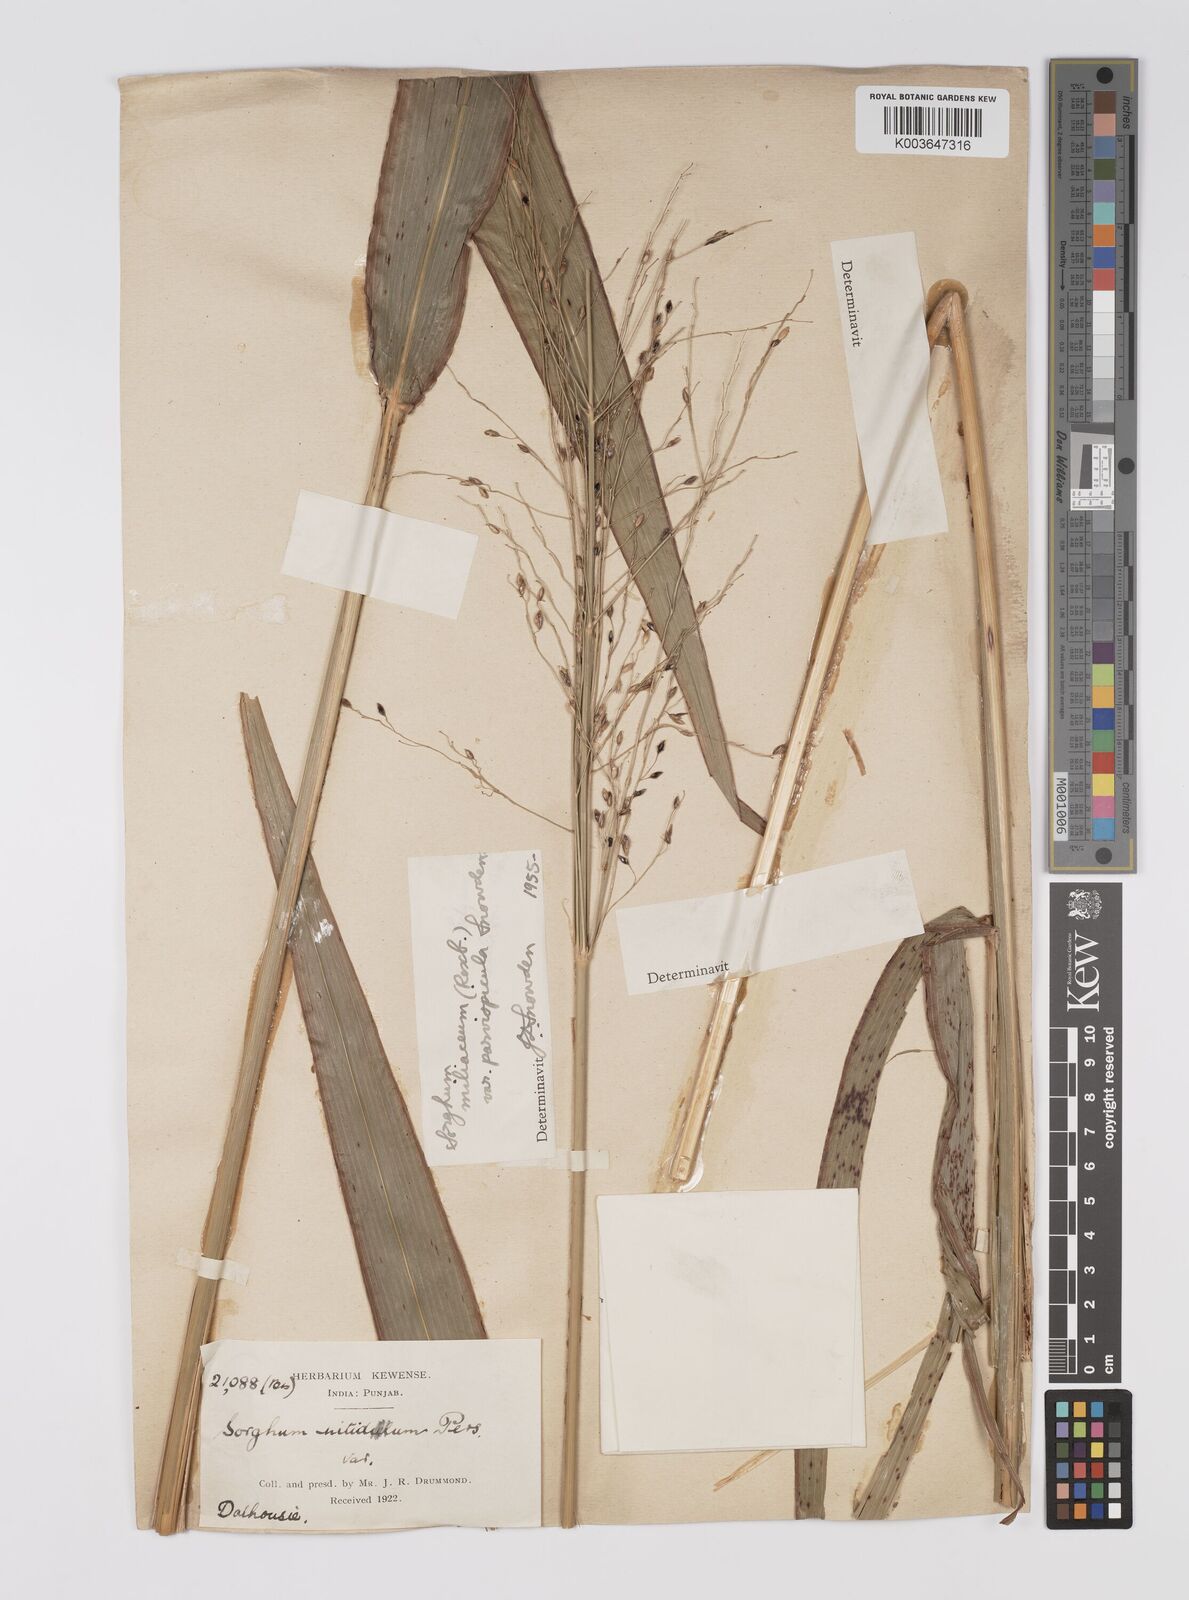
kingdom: Plantae
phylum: Tracheophyta
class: Liliopsida
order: Poales
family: Poaceae
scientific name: Poaceae
